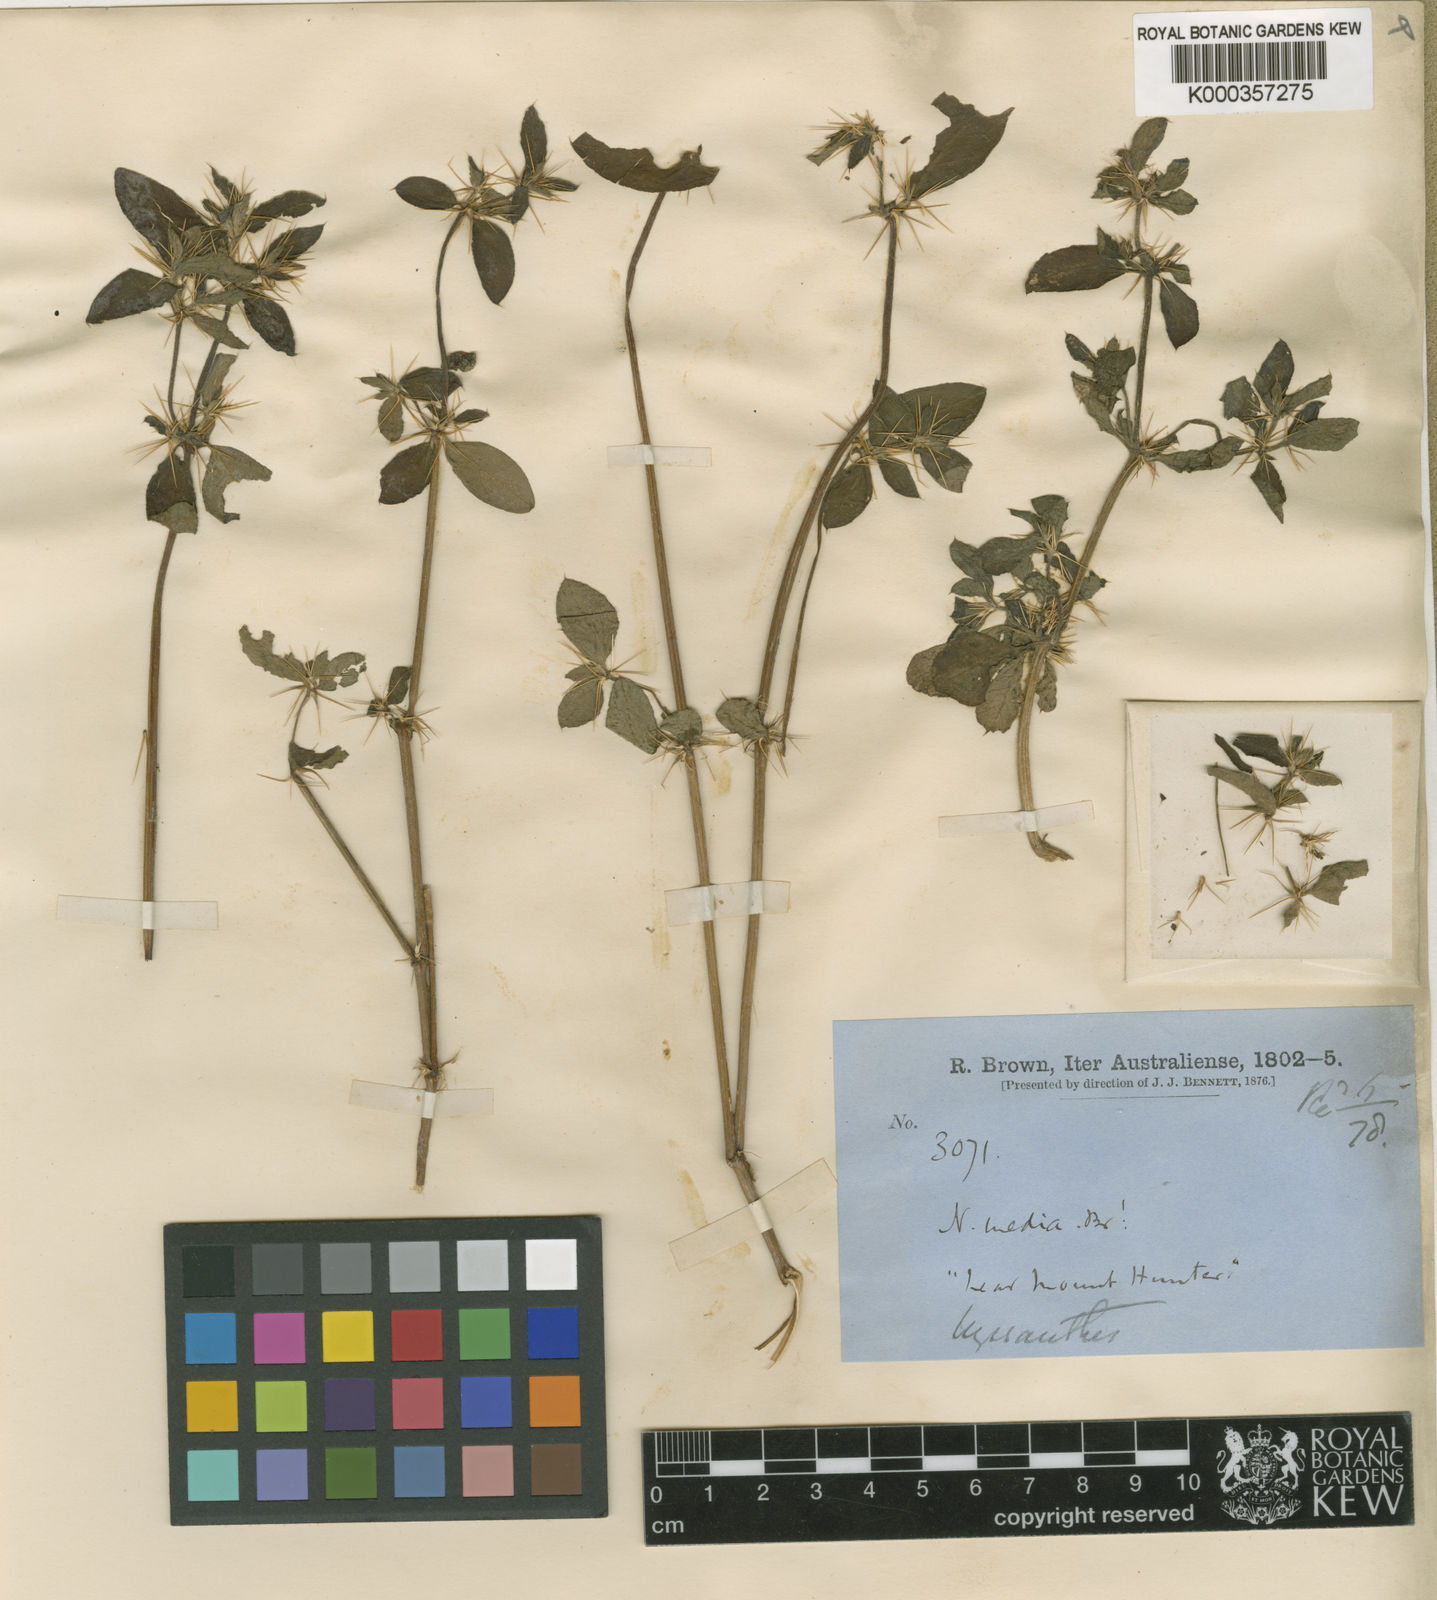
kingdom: Plantae
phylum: Tracheophyta
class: Magnoliopsida
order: Caryophyllales
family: Amaranthaceae
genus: Nyssanthes
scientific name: Nyssanthes diffusa
